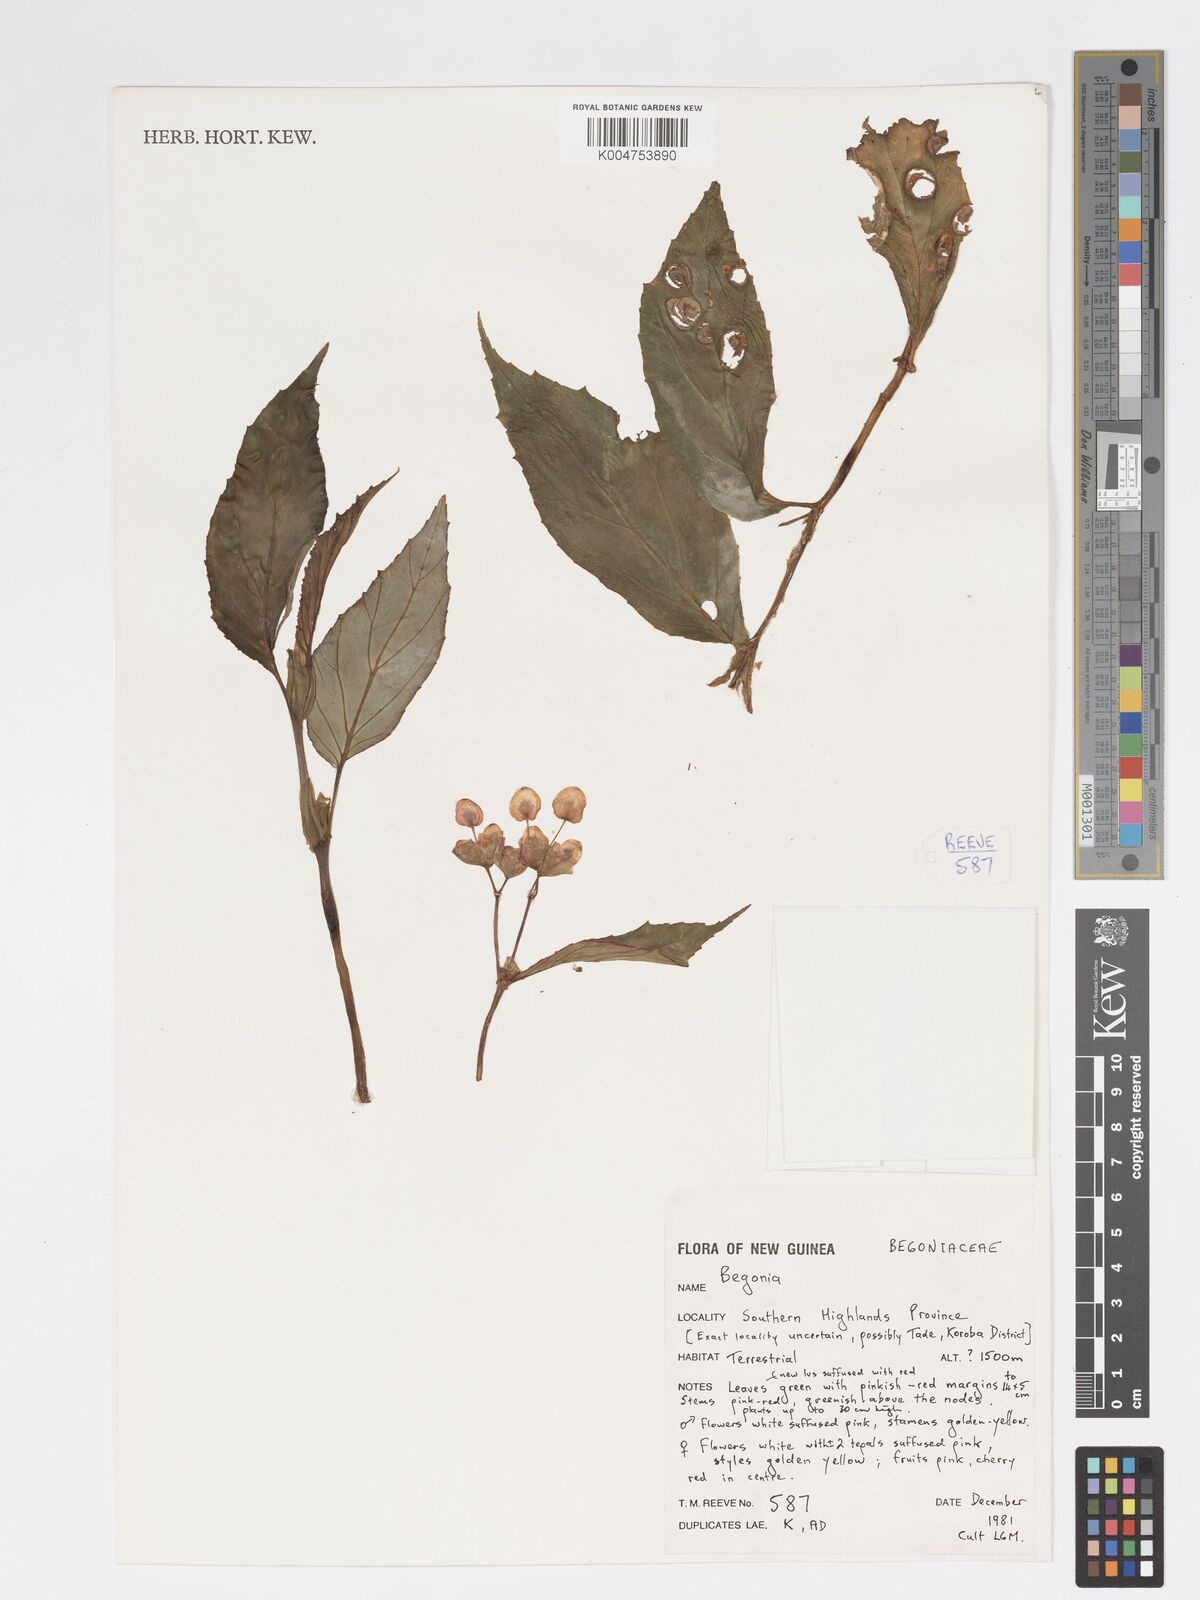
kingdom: Plantae
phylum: Tracheophyta
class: Magnoliopsida
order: Cucurbitales
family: Begoniaceae
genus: Begonia
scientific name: Begonia
